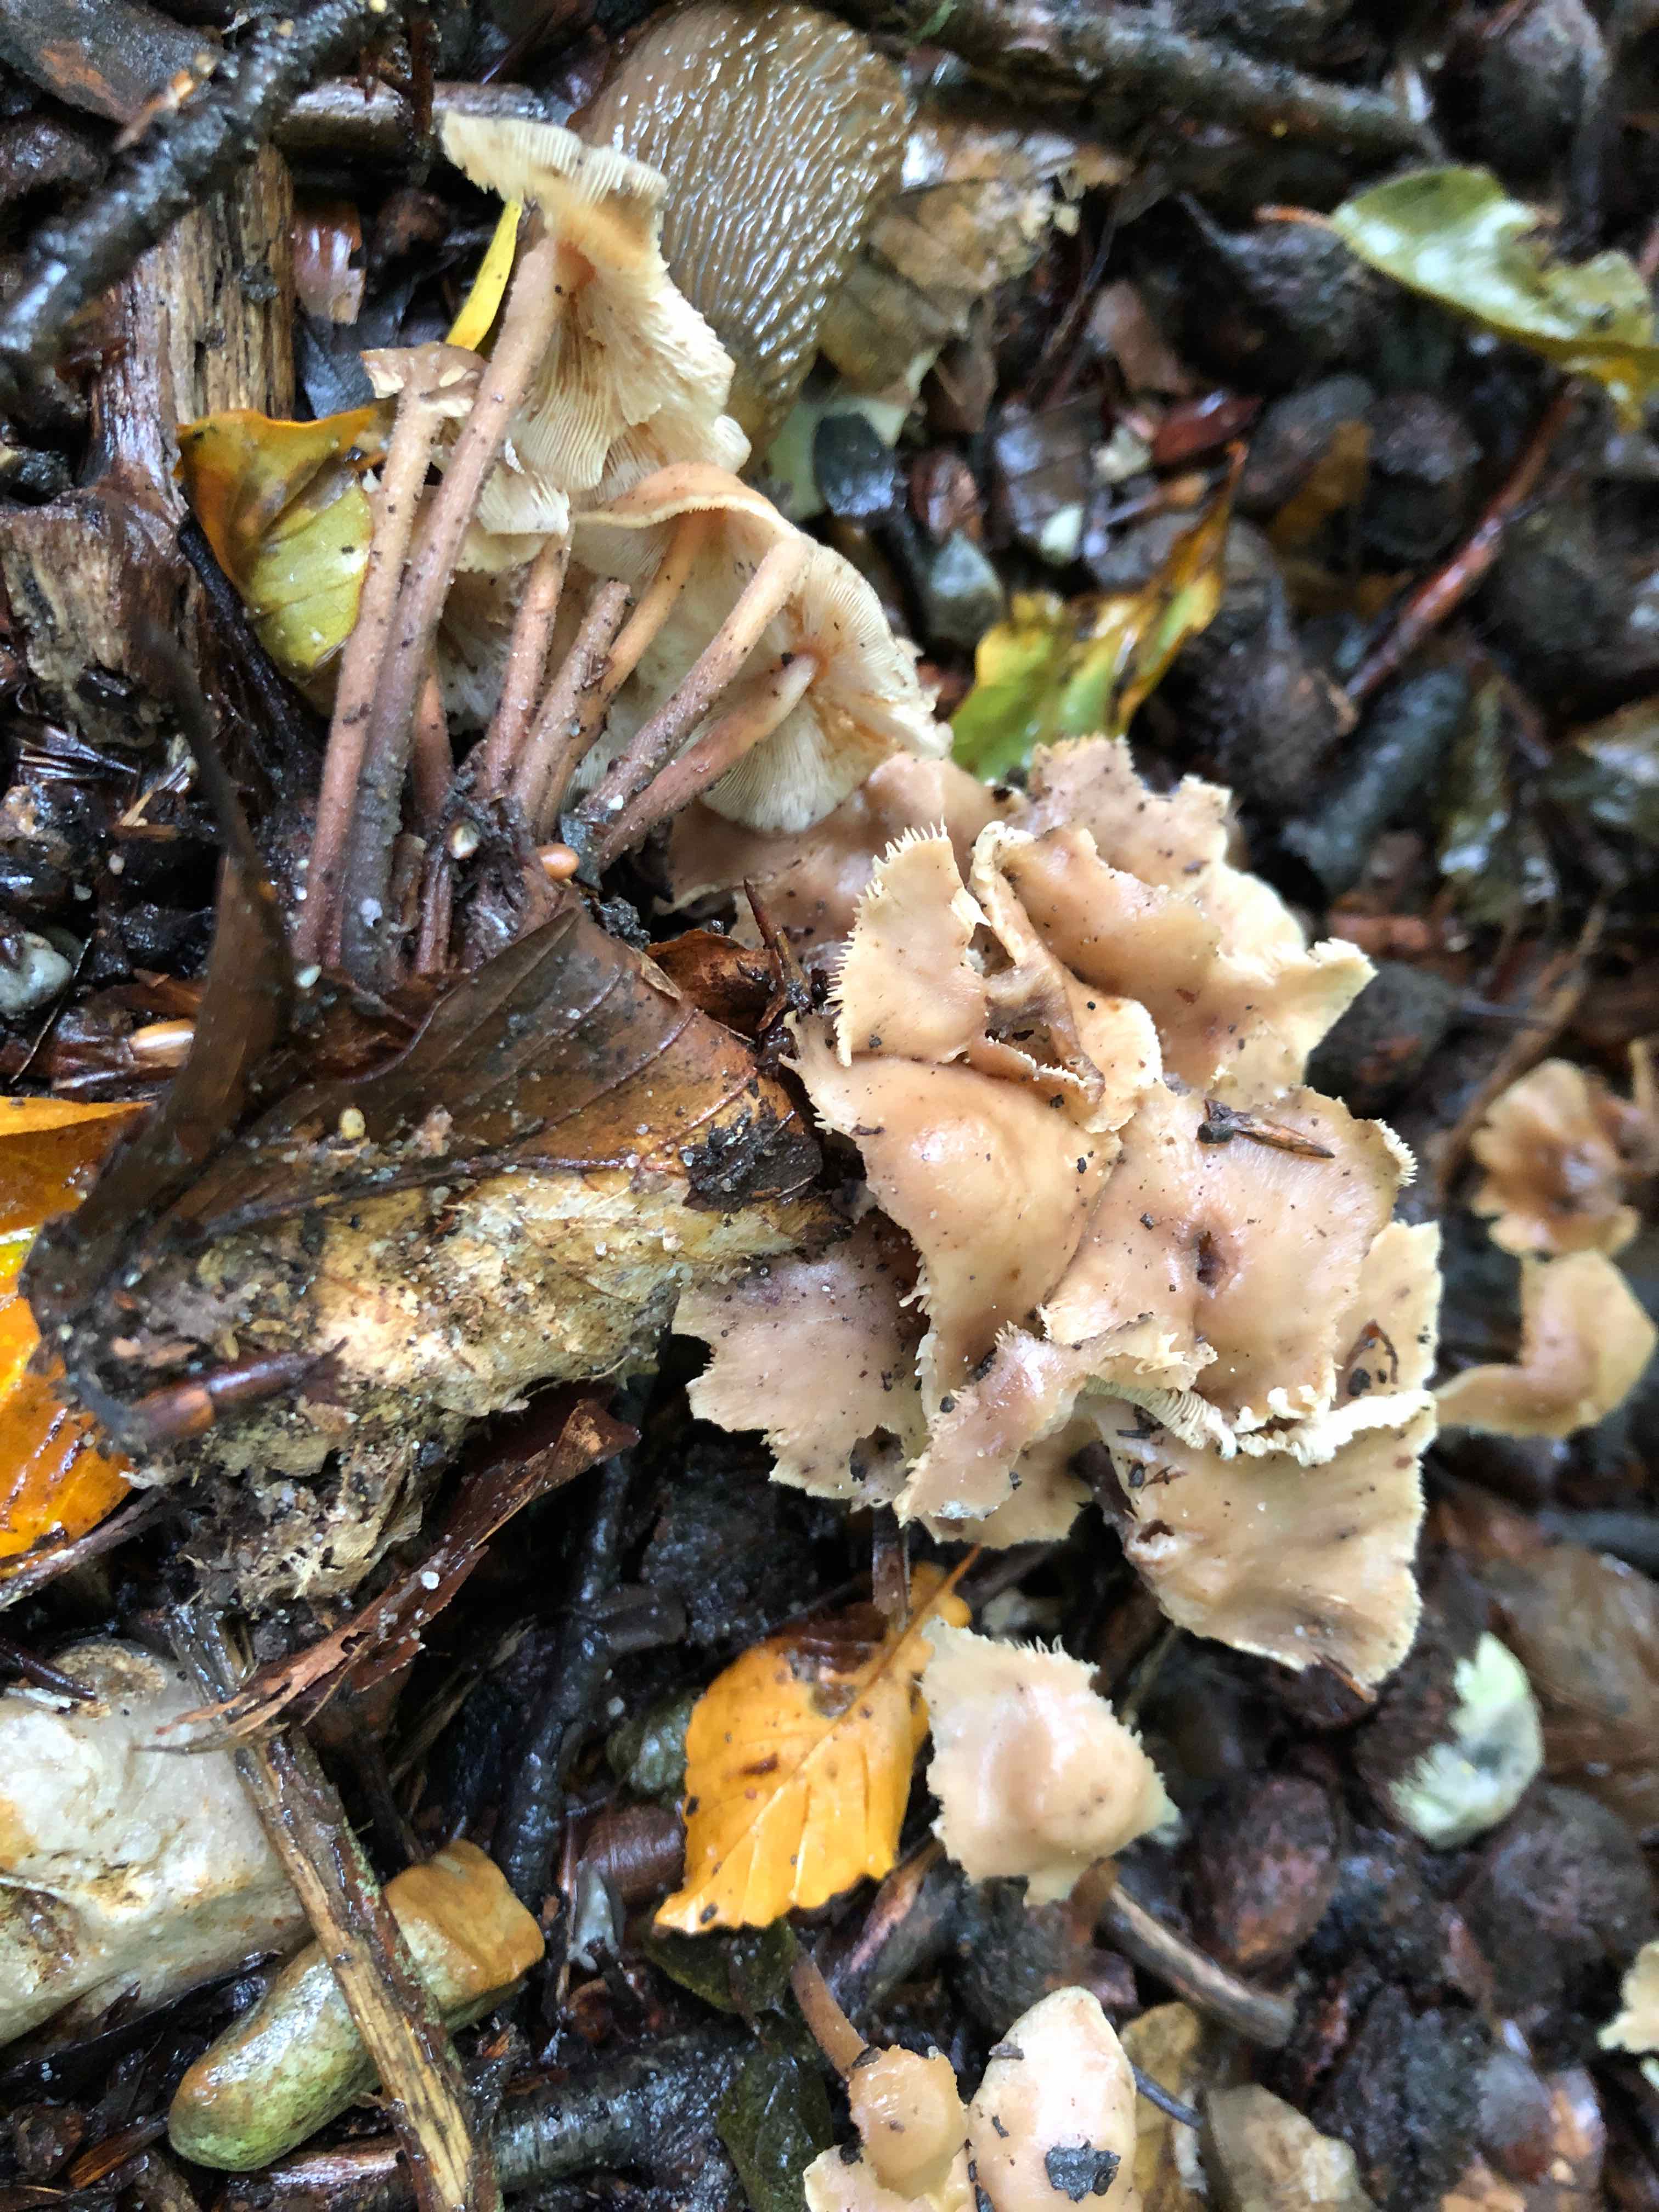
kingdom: Fungi
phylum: Basidiomycota
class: Agaricomycetes
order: Agaricales
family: Omphalotaceae
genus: Collybiopsis
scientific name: Collybiopsis confluens
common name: knippe-fladhat
